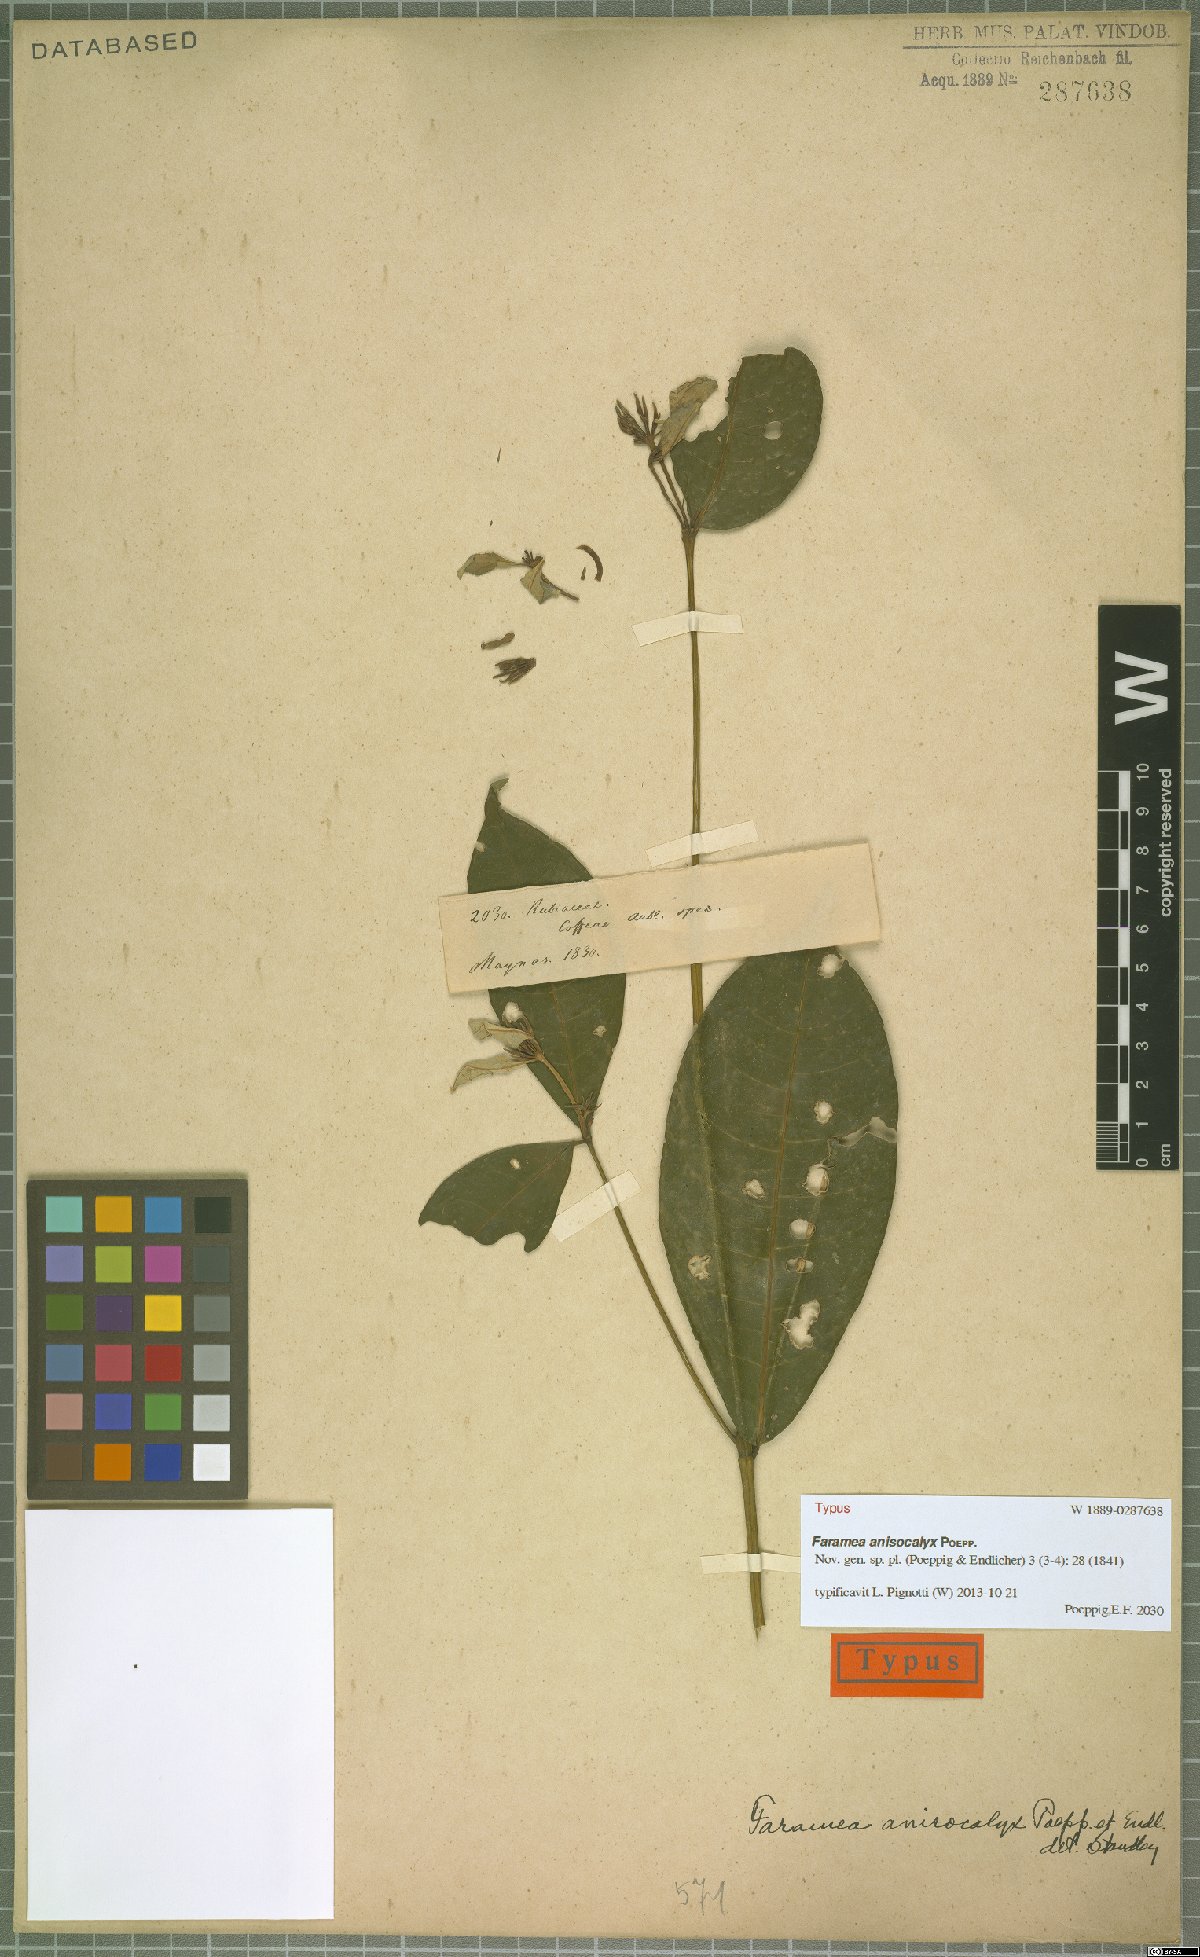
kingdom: Plantae
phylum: Tracheophyta
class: Magnoliopsida
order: Gentianales
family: Rubiaceae
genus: Faramea
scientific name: Faramea anisocalyx
